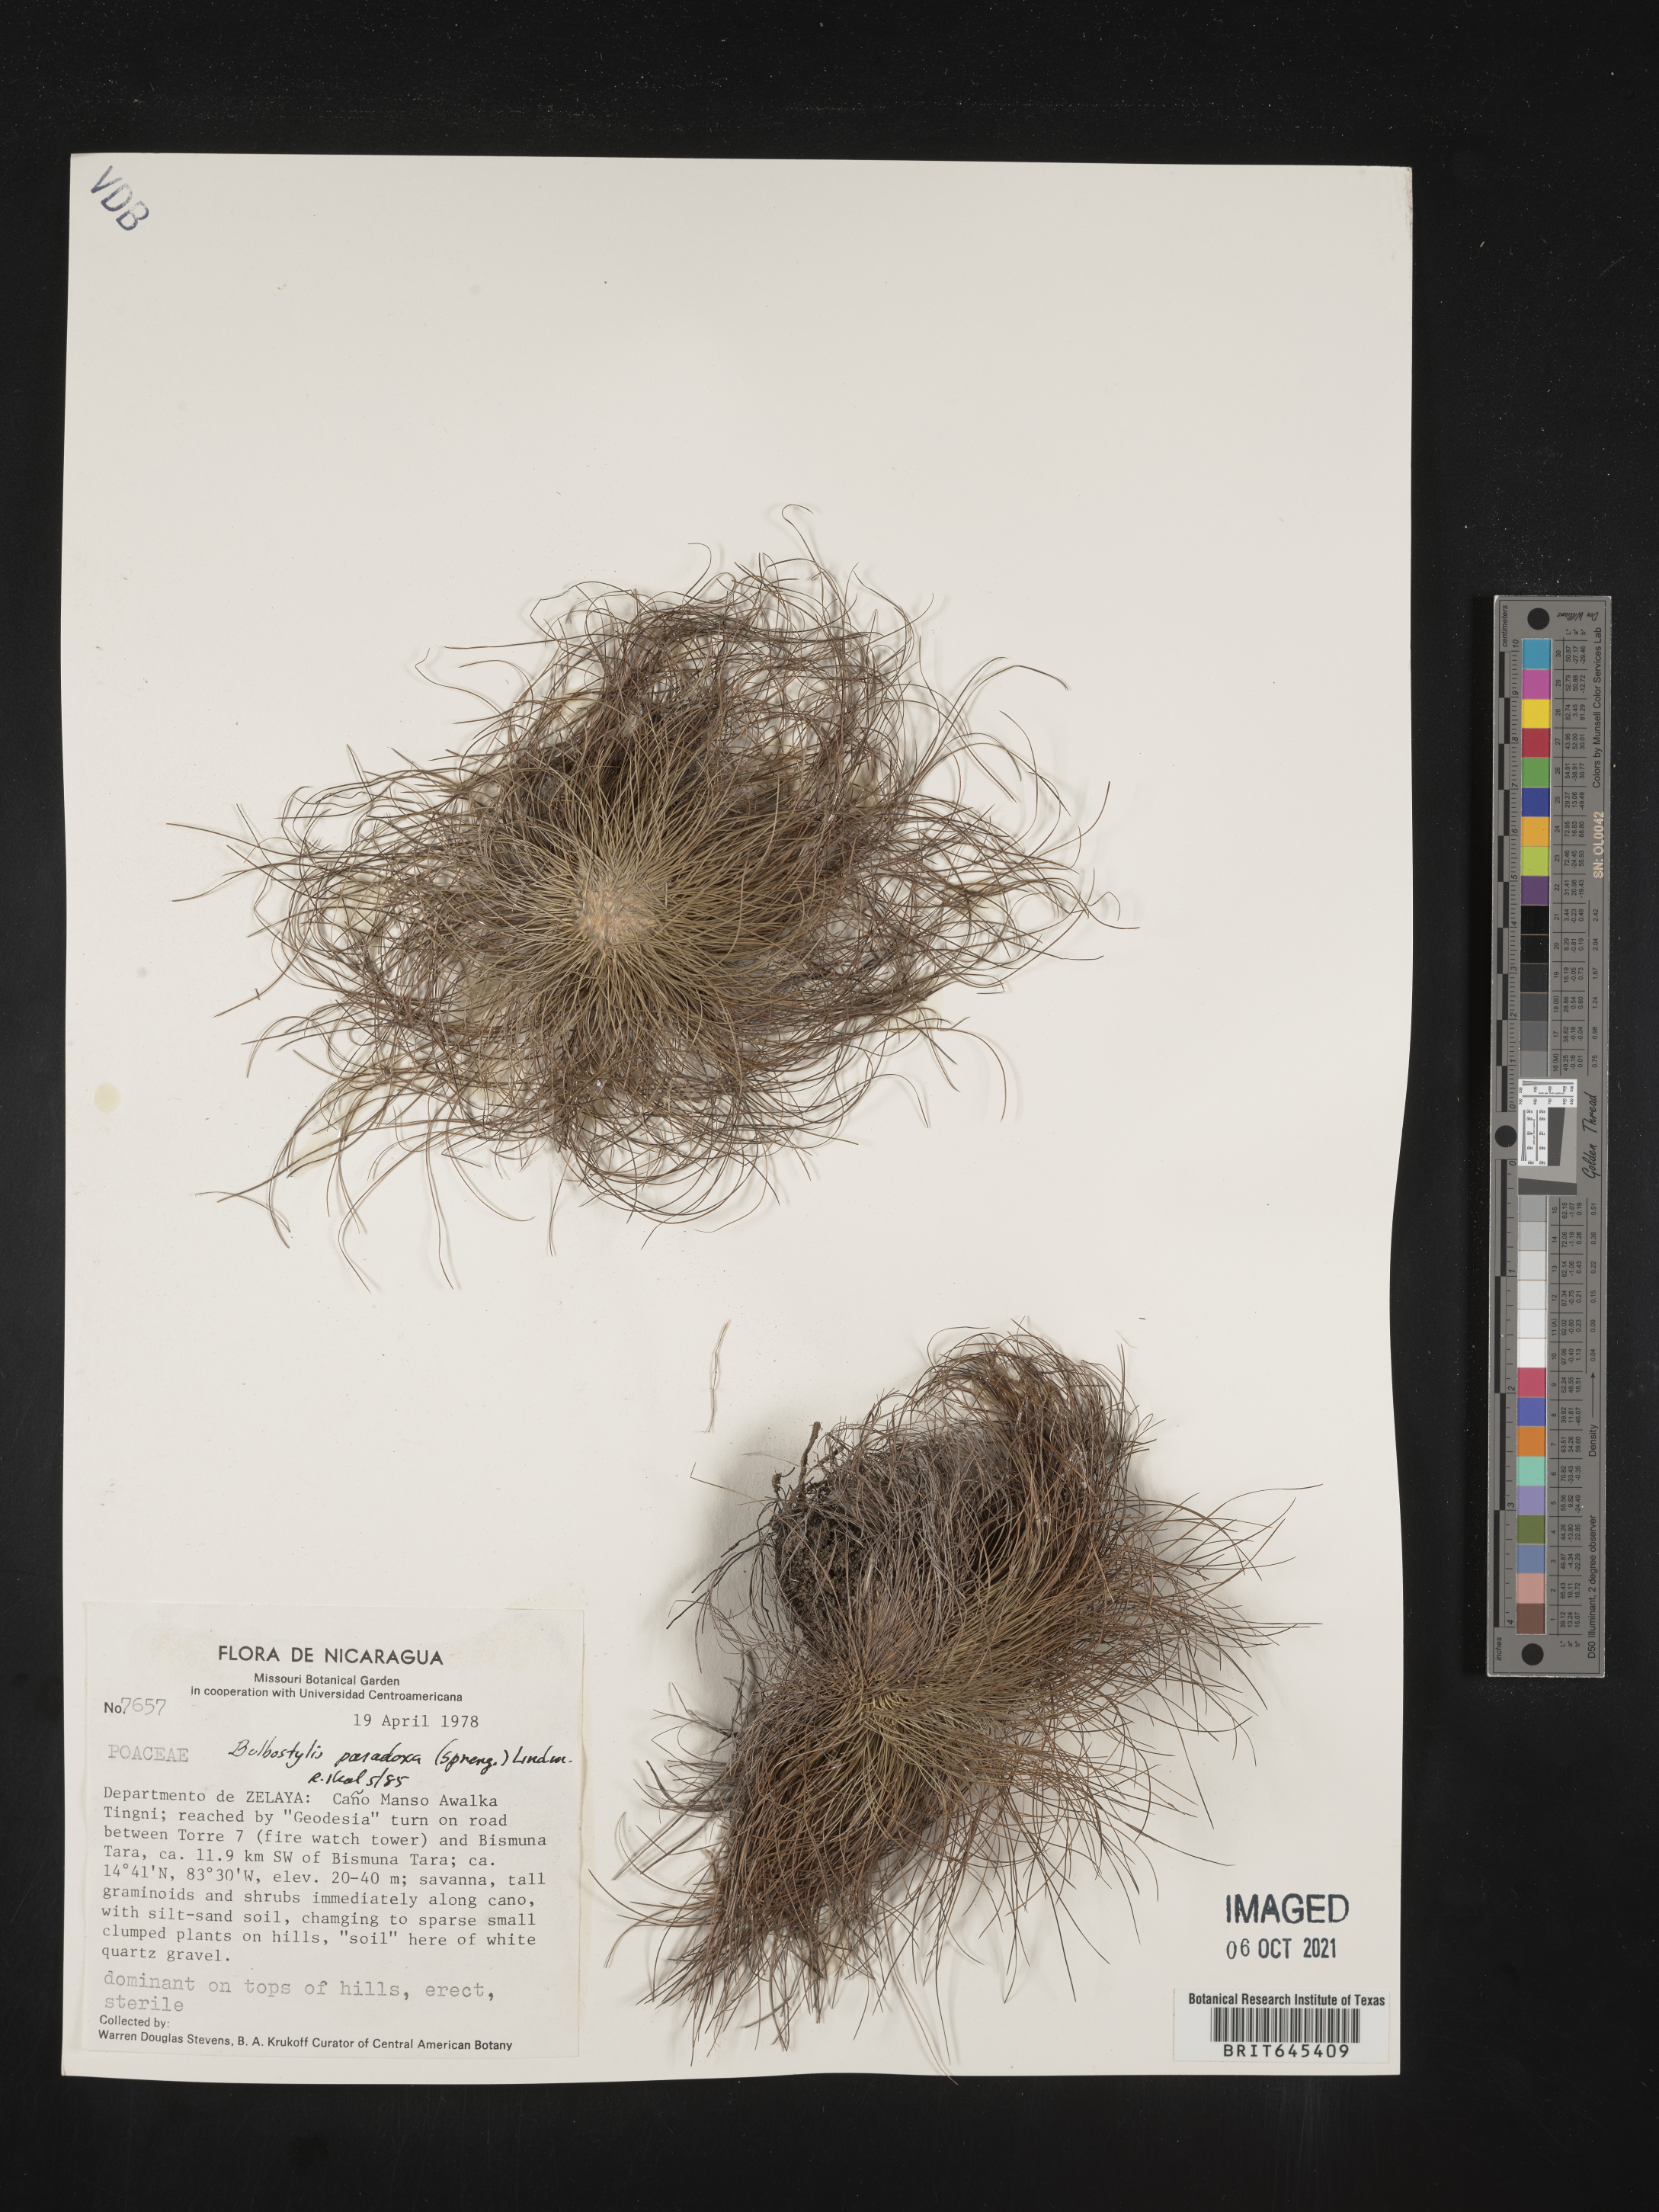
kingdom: Plantae
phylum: Tracheophyta
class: Liliopsida
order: Poales
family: Cyperaceae
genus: Bulbostylis
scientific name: Bulbostylis paradoxa
